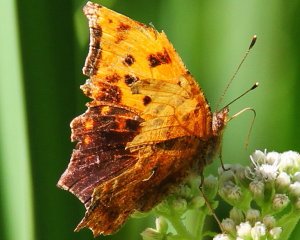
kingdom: Animalia
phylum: Arthropoda
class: Insecta
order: Lepidoptera
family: Nymphalidae
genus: Polygonia
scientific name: Polygonia comma
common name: Eastern Comma
